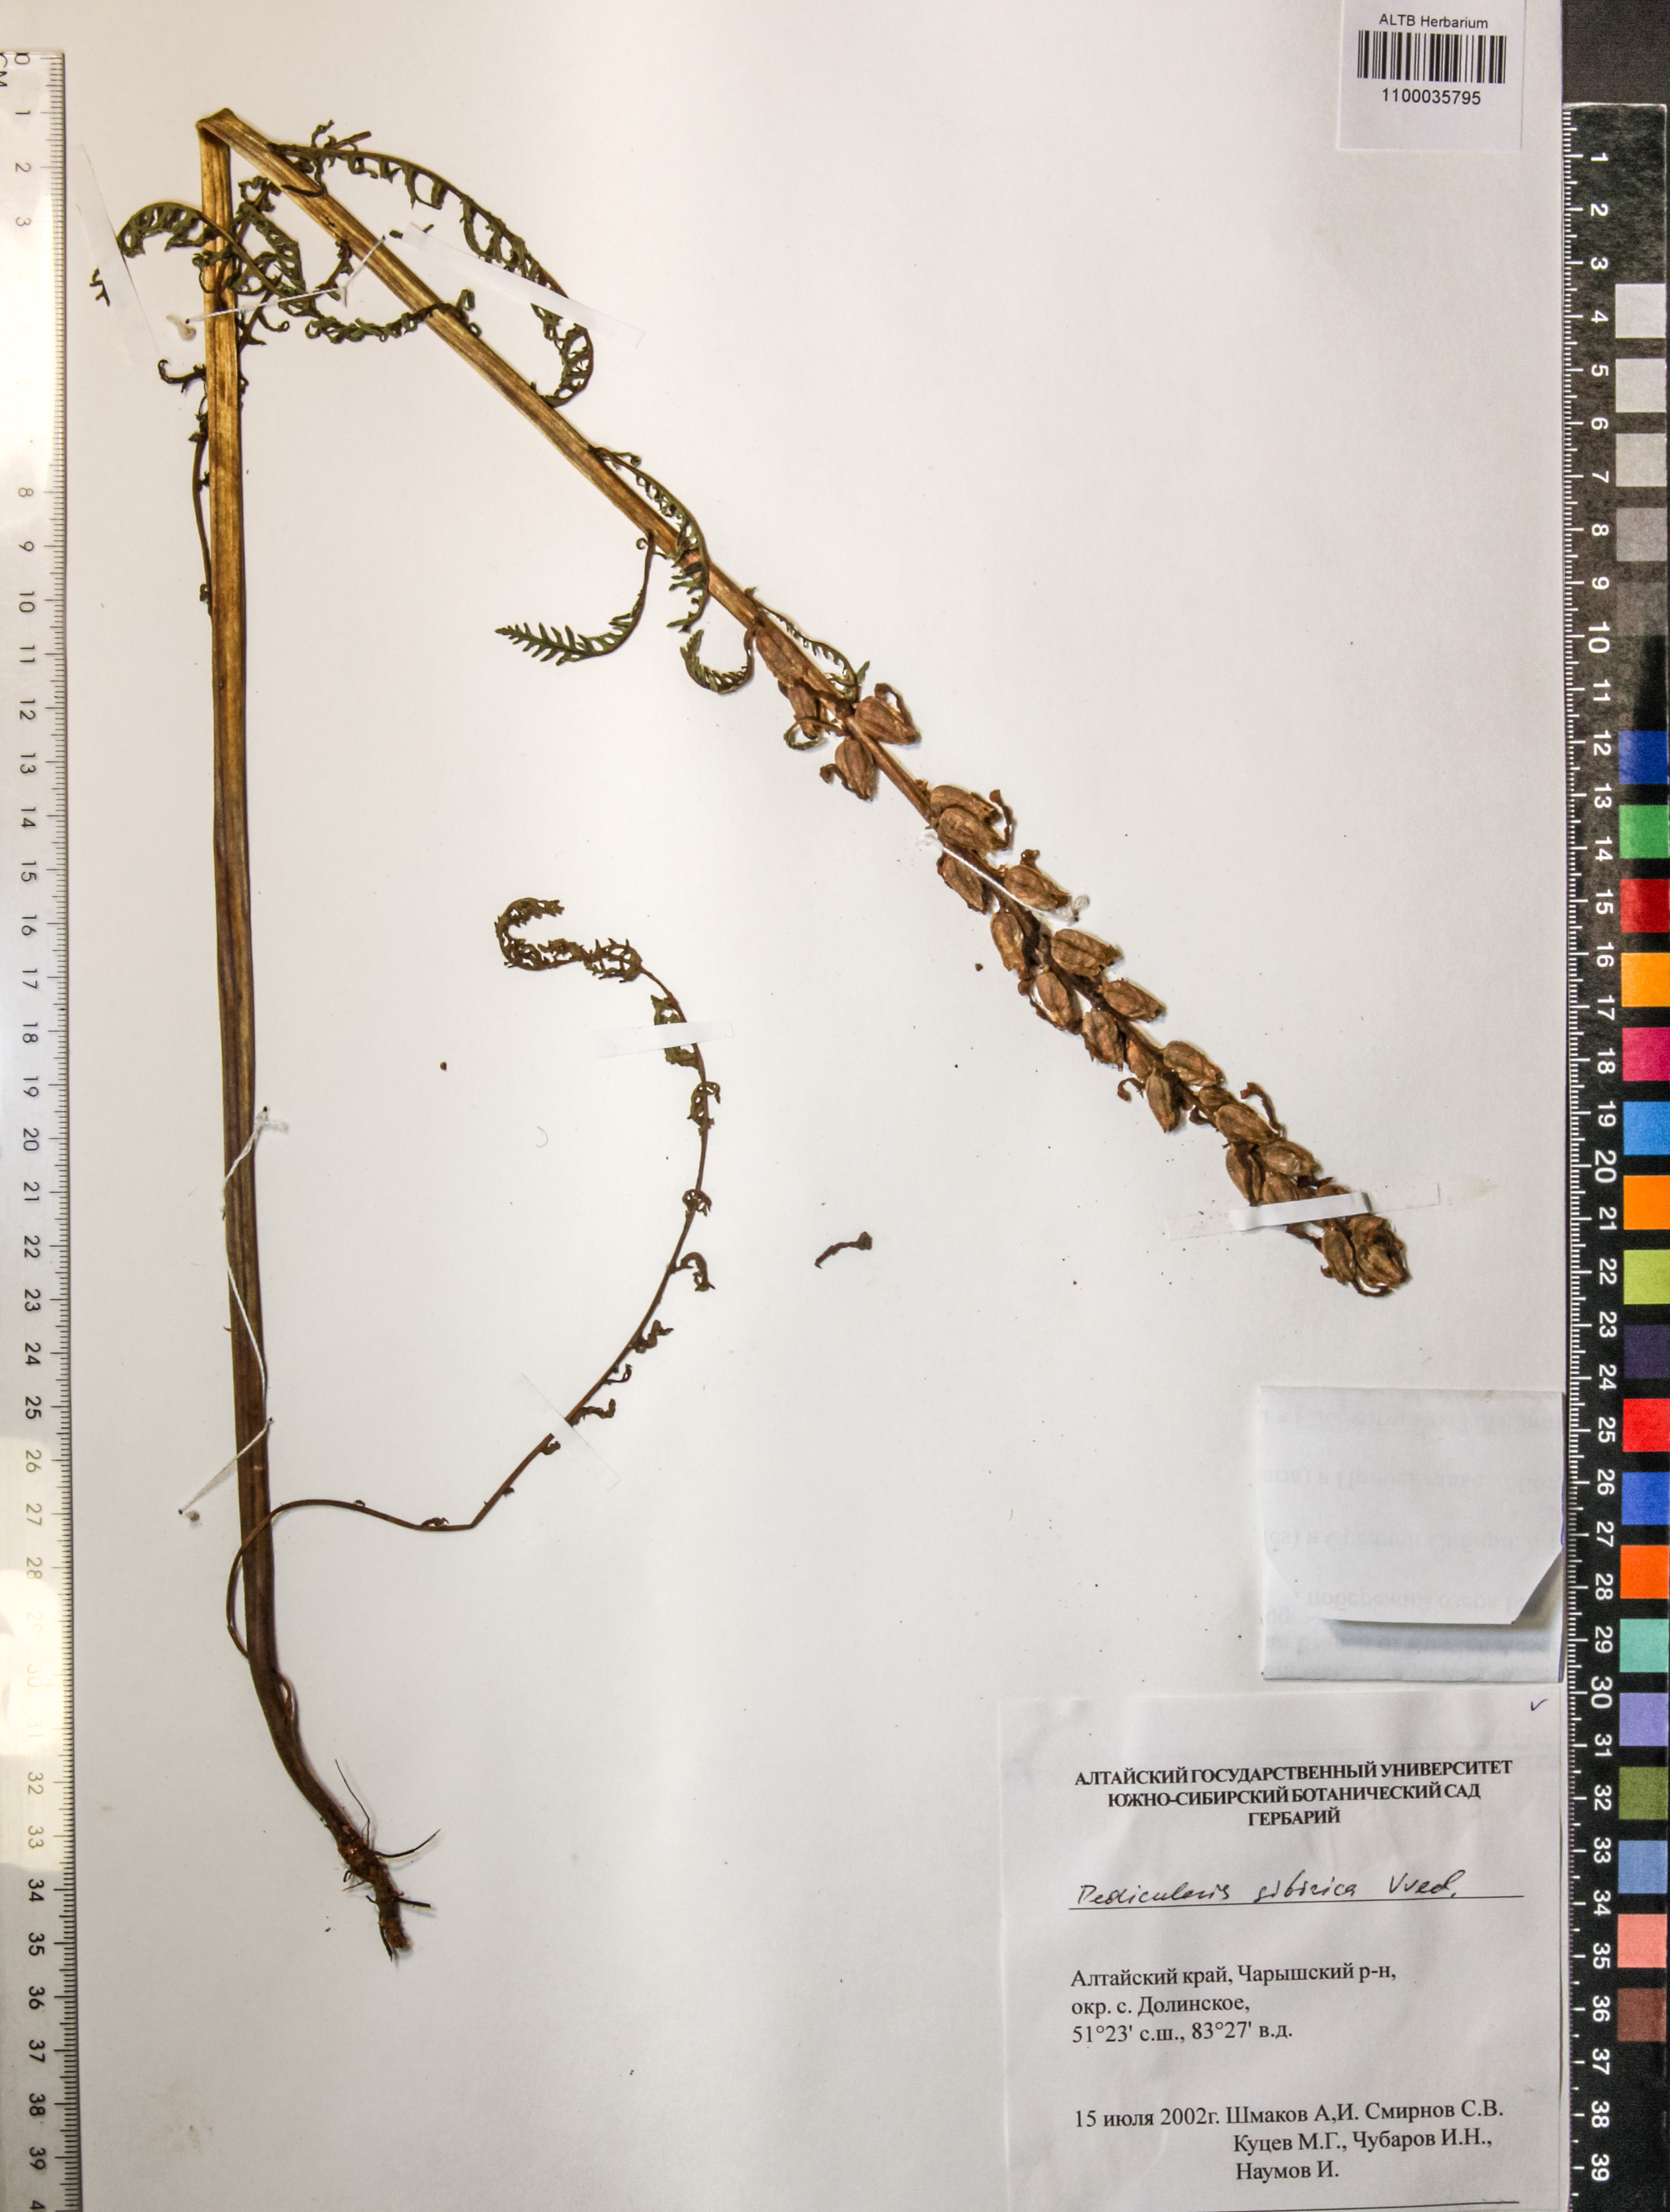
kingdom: Plantae
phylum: Tracheophyta
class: Magnoliopsida
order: Lamiales
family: Orobanchaceae
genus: Pedicularis
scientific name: Pedicularis sibirica
